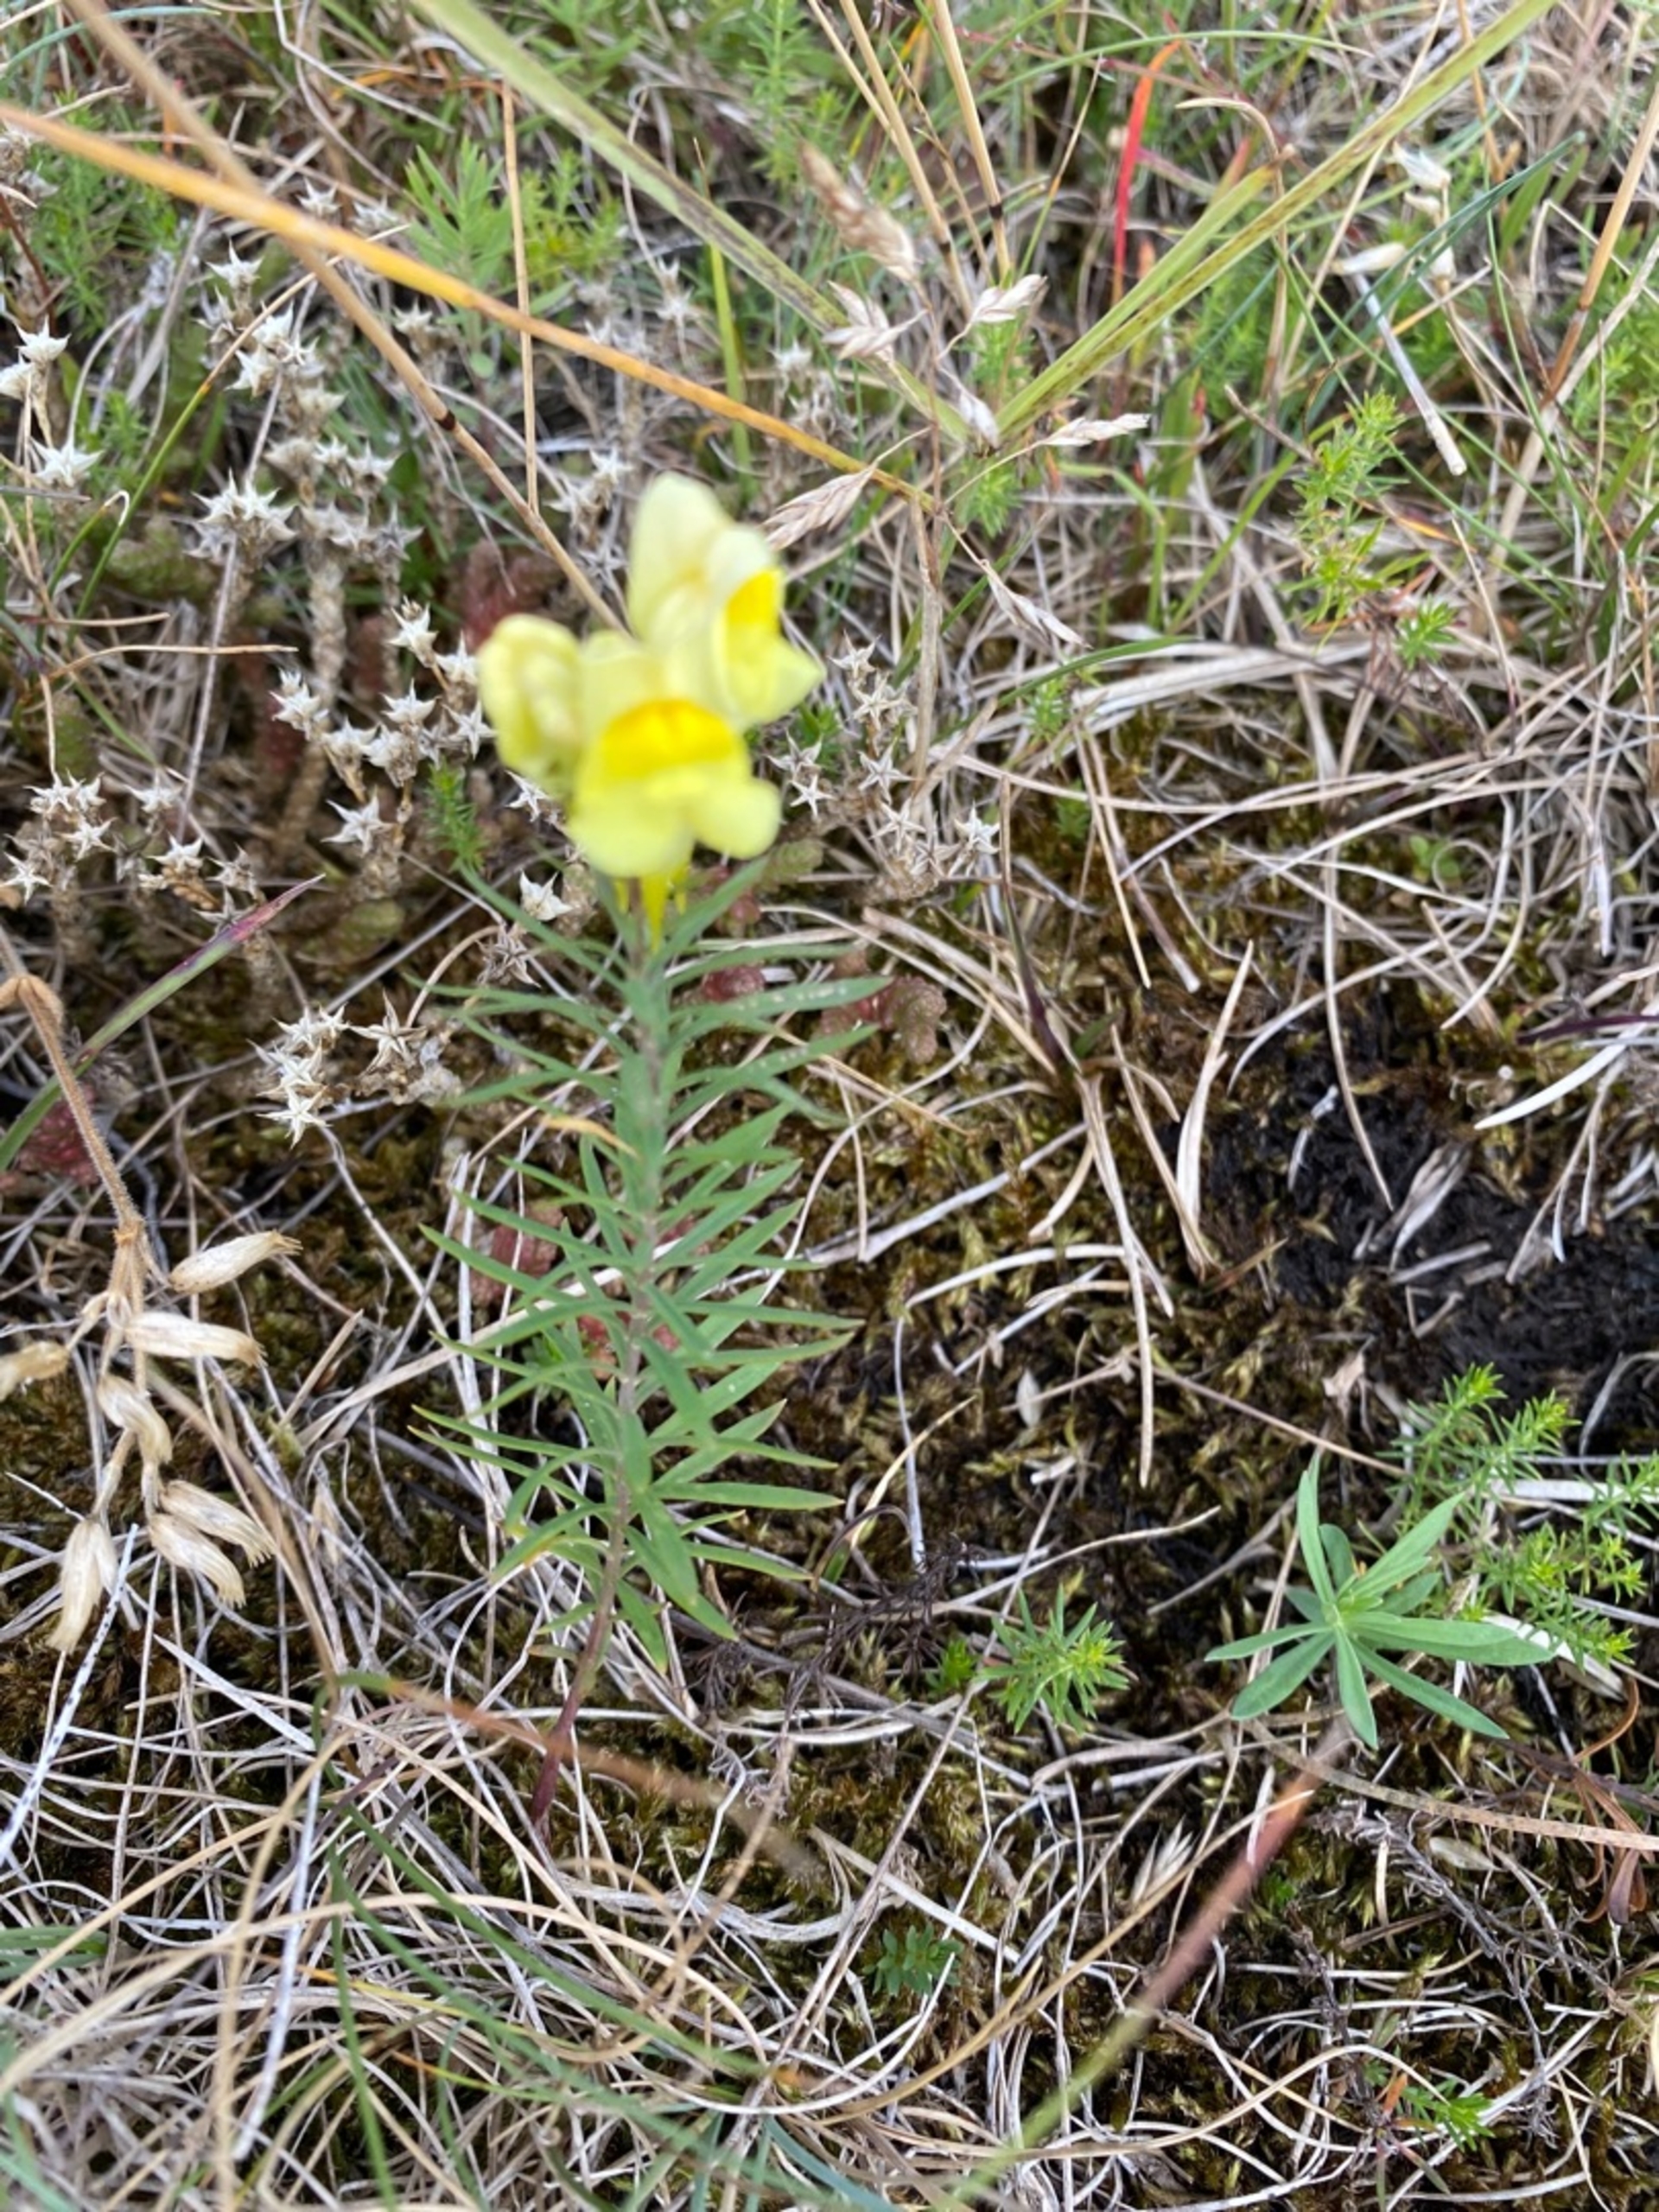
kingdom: Plantae
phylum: Tracheophyta
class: Magnoliopsida
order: Lamiales
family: Plantaginaceae
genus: Linaria
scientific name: Linaria vulgaris
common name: Almindelig torskemund
